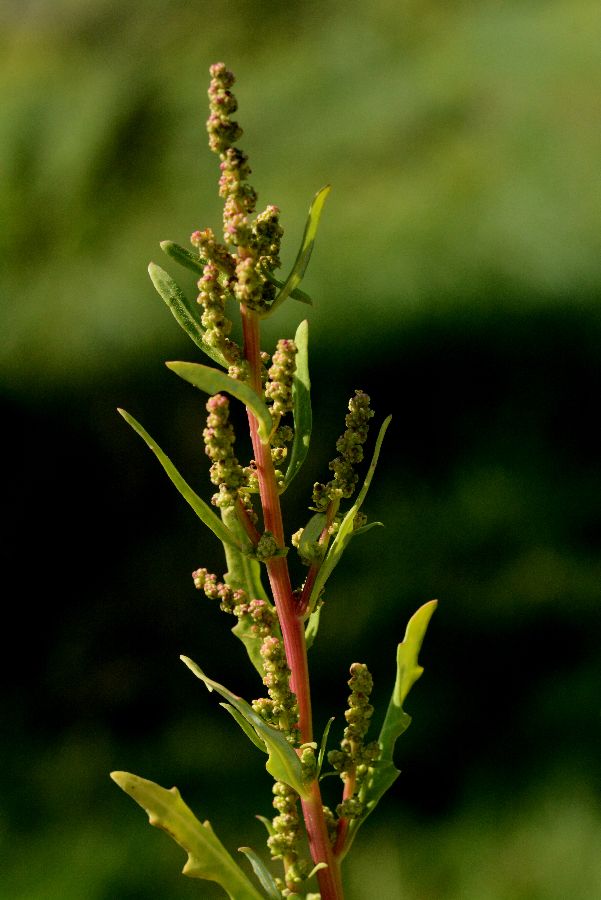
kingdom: Plantae
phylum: Tracheophyta
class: Magnoliopsida
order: Caryophyllales
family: Amaranthaceae
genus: Oxybasis
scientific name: Oxybasis glauca
